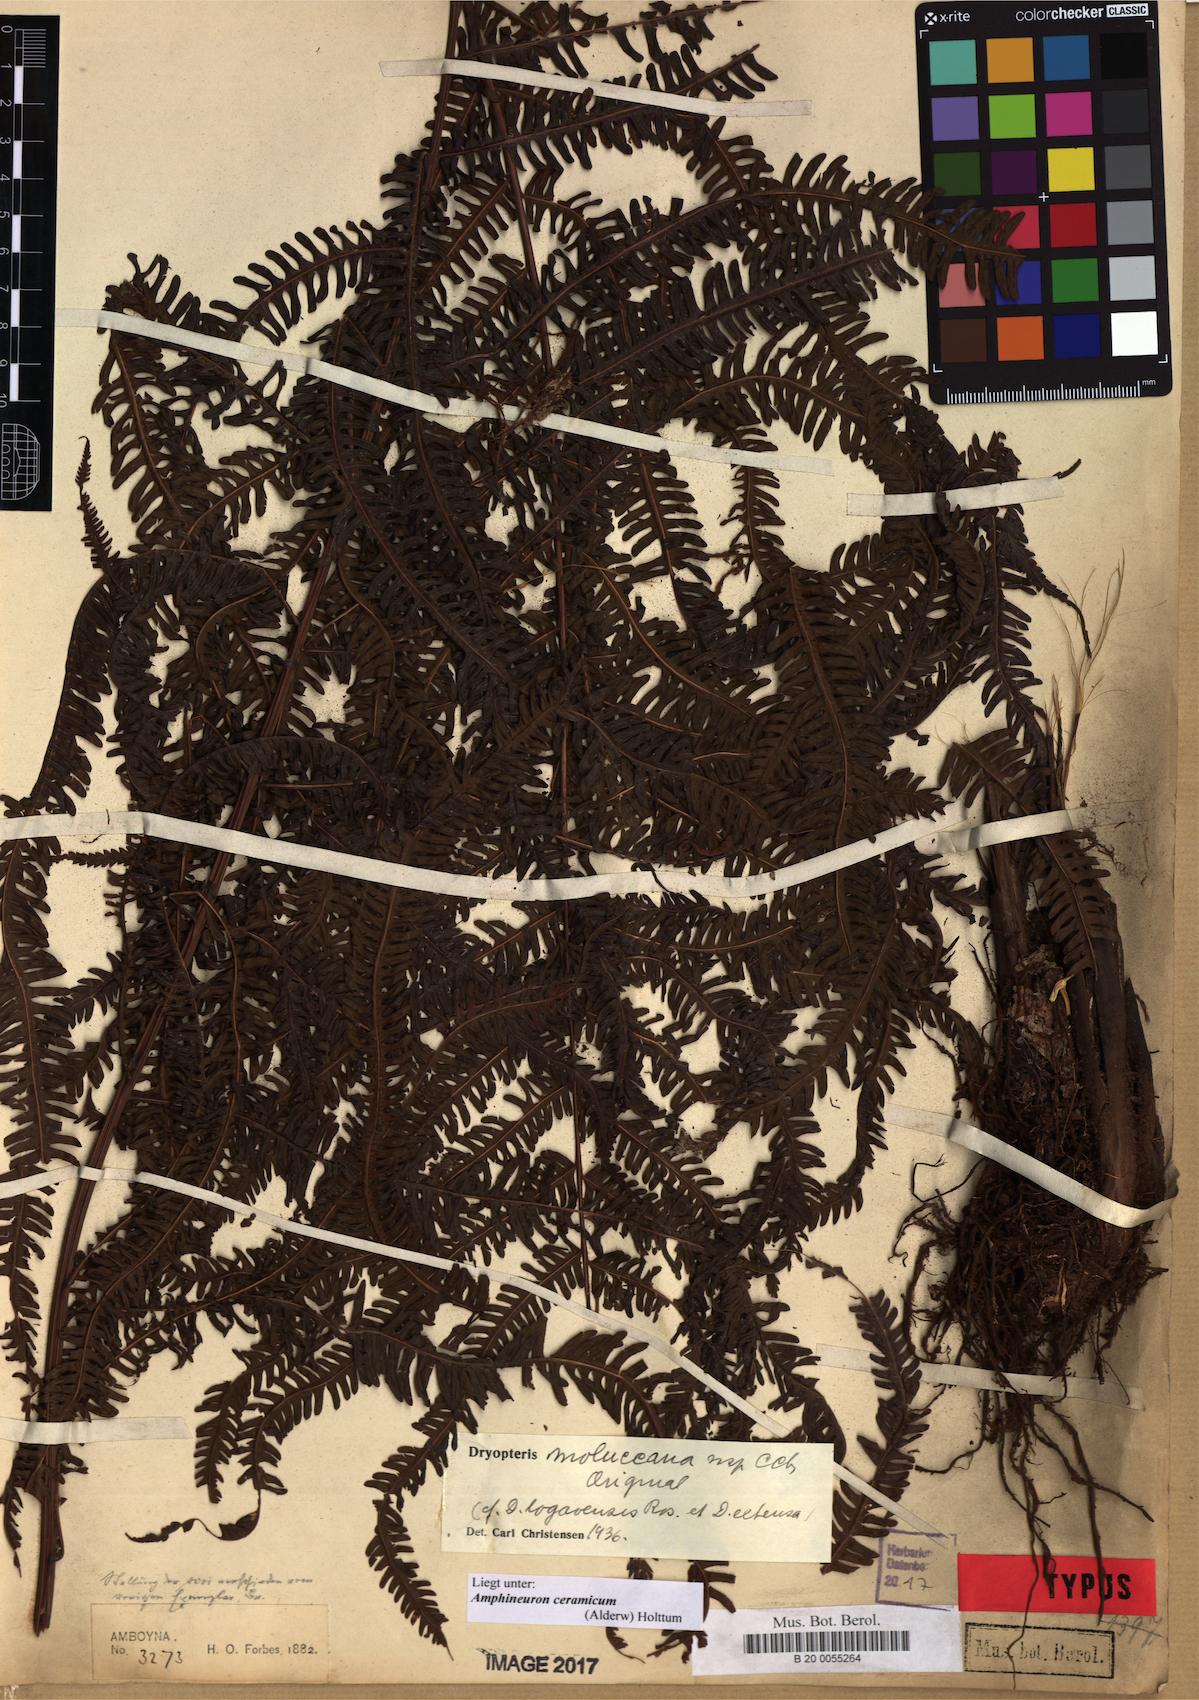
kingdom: Plantae
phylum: Tracheophyta
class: Polypodiopsida
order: Polypodiales
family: Thelypteridaceae
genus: Mesopteris
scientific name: Mesopteris ceramica
